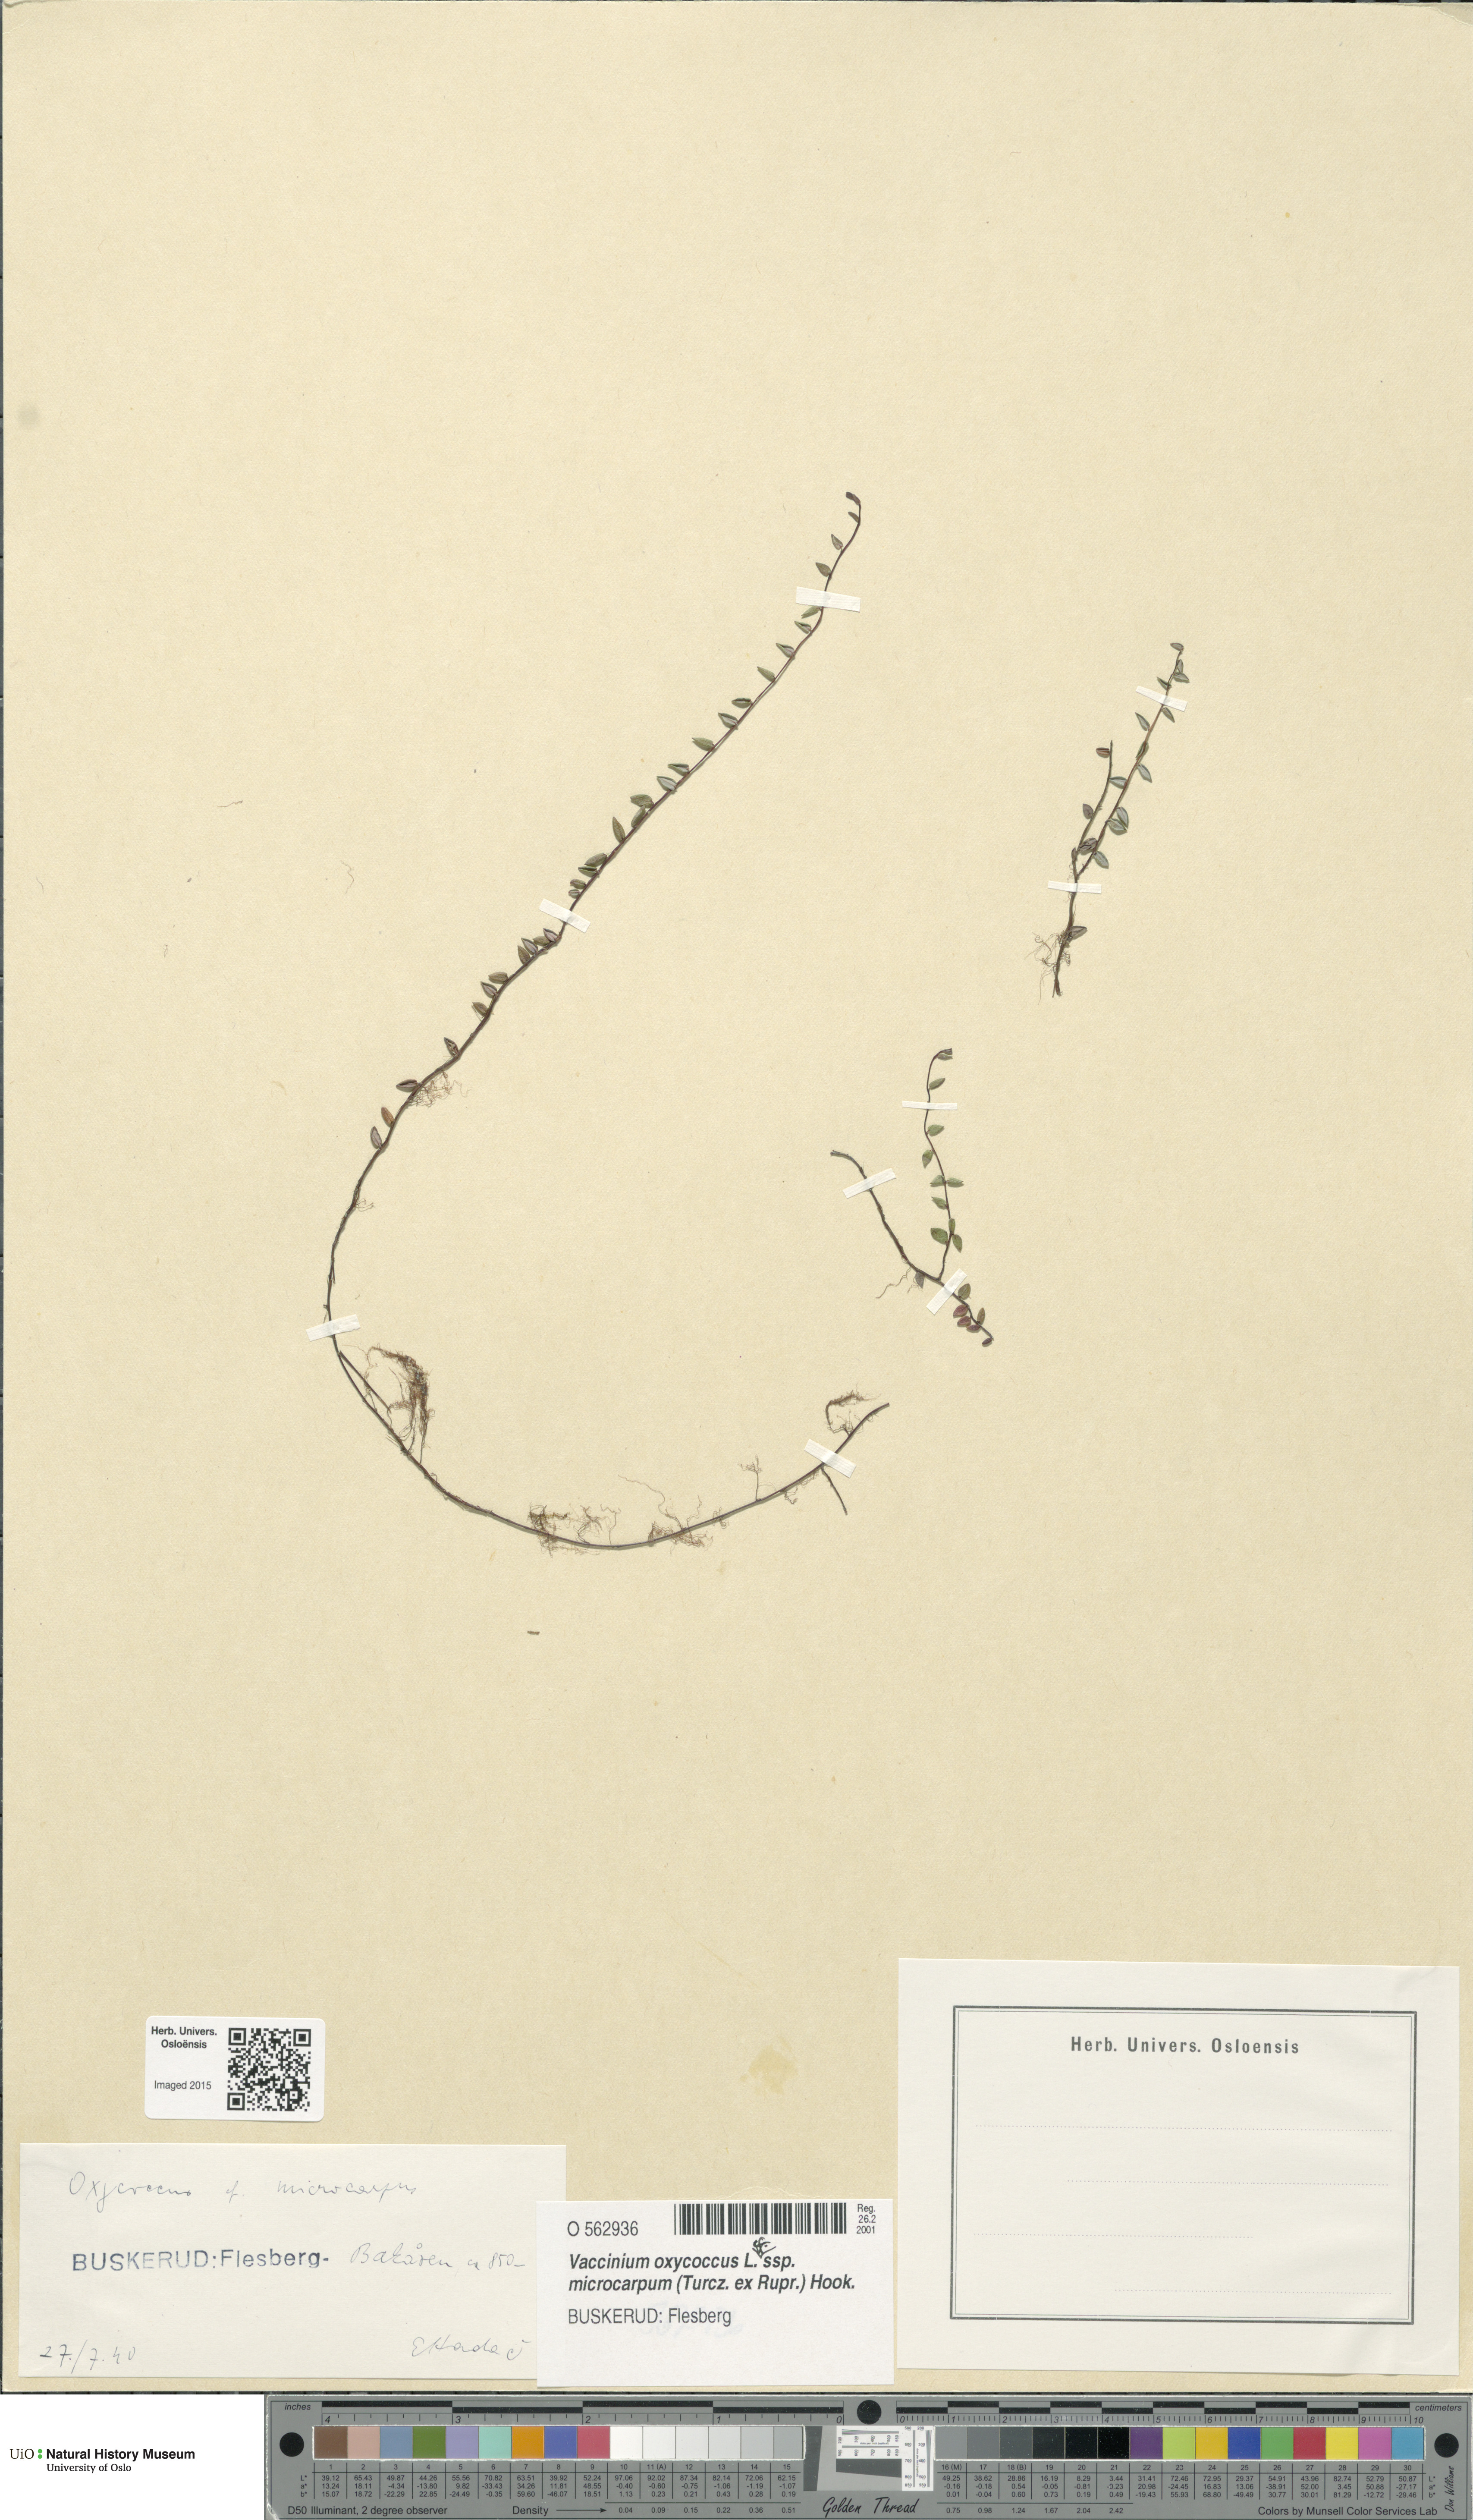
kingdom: Plantae
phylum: Tracheophyta
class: Magnoliopsida
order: Ericales
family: Ericaceae
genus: Vaccinium
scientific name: Vaccinium microcarpum
